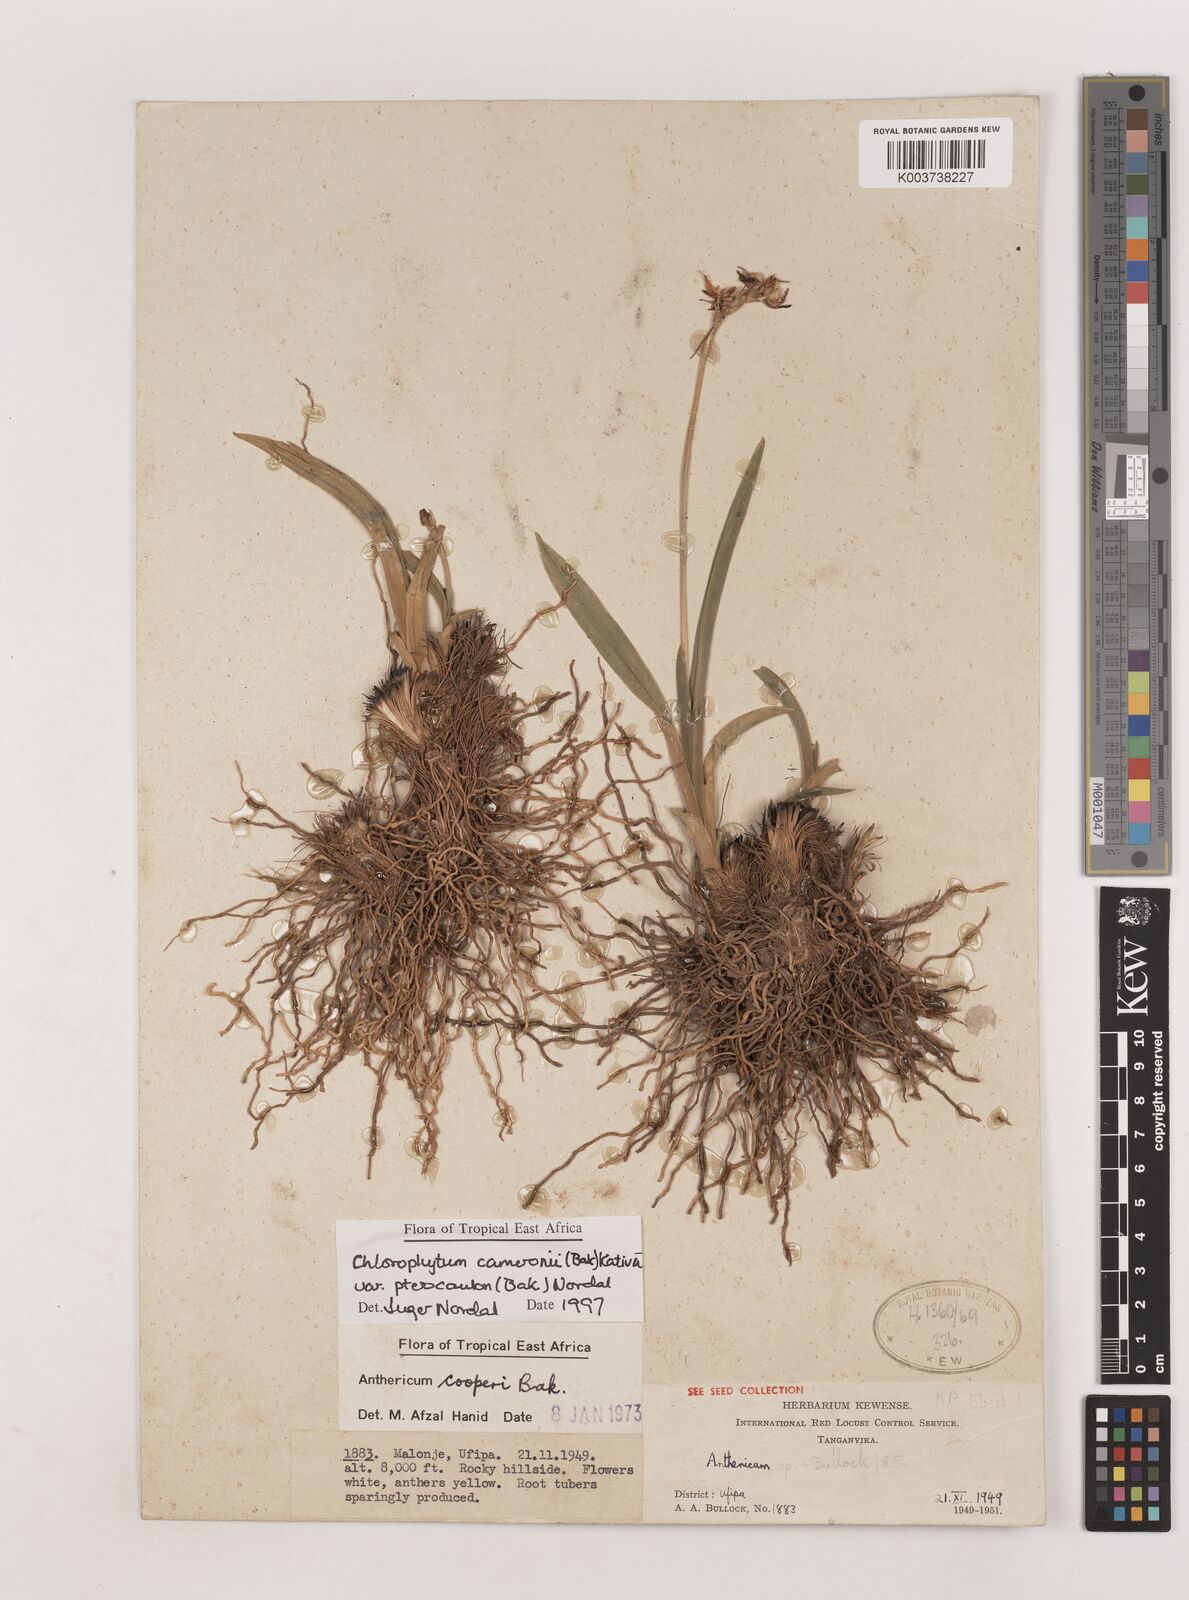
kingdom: Plantae
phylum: Tracheophyta
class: Liliopsida
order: Asparagales
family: Asparagaceae
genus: Chlorophytum
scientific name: Chlorophytum cameronii
